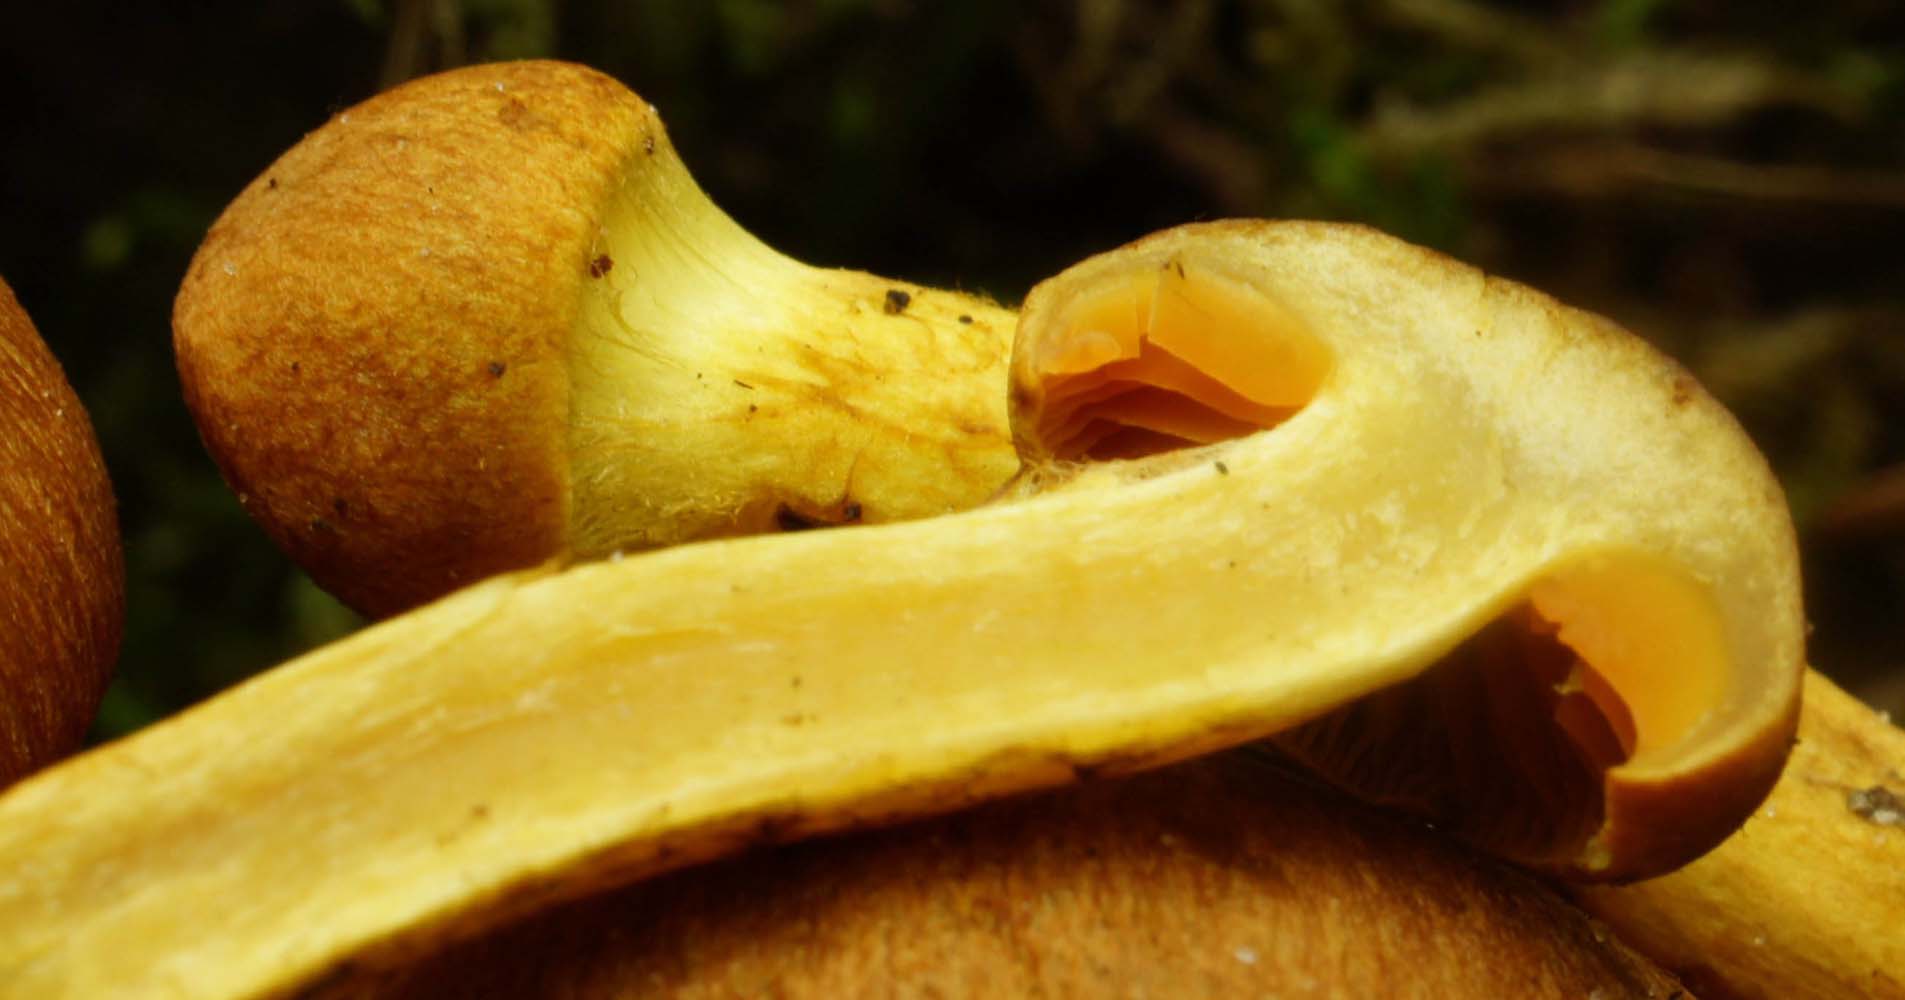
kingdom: Fungi
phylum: Basidiomycota
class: Agaricomycetes
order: Agaricales
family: Cortinariaceae
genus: Cortinarius
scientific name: Cortinarius cinnamomeus
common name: kanel-slørhat
